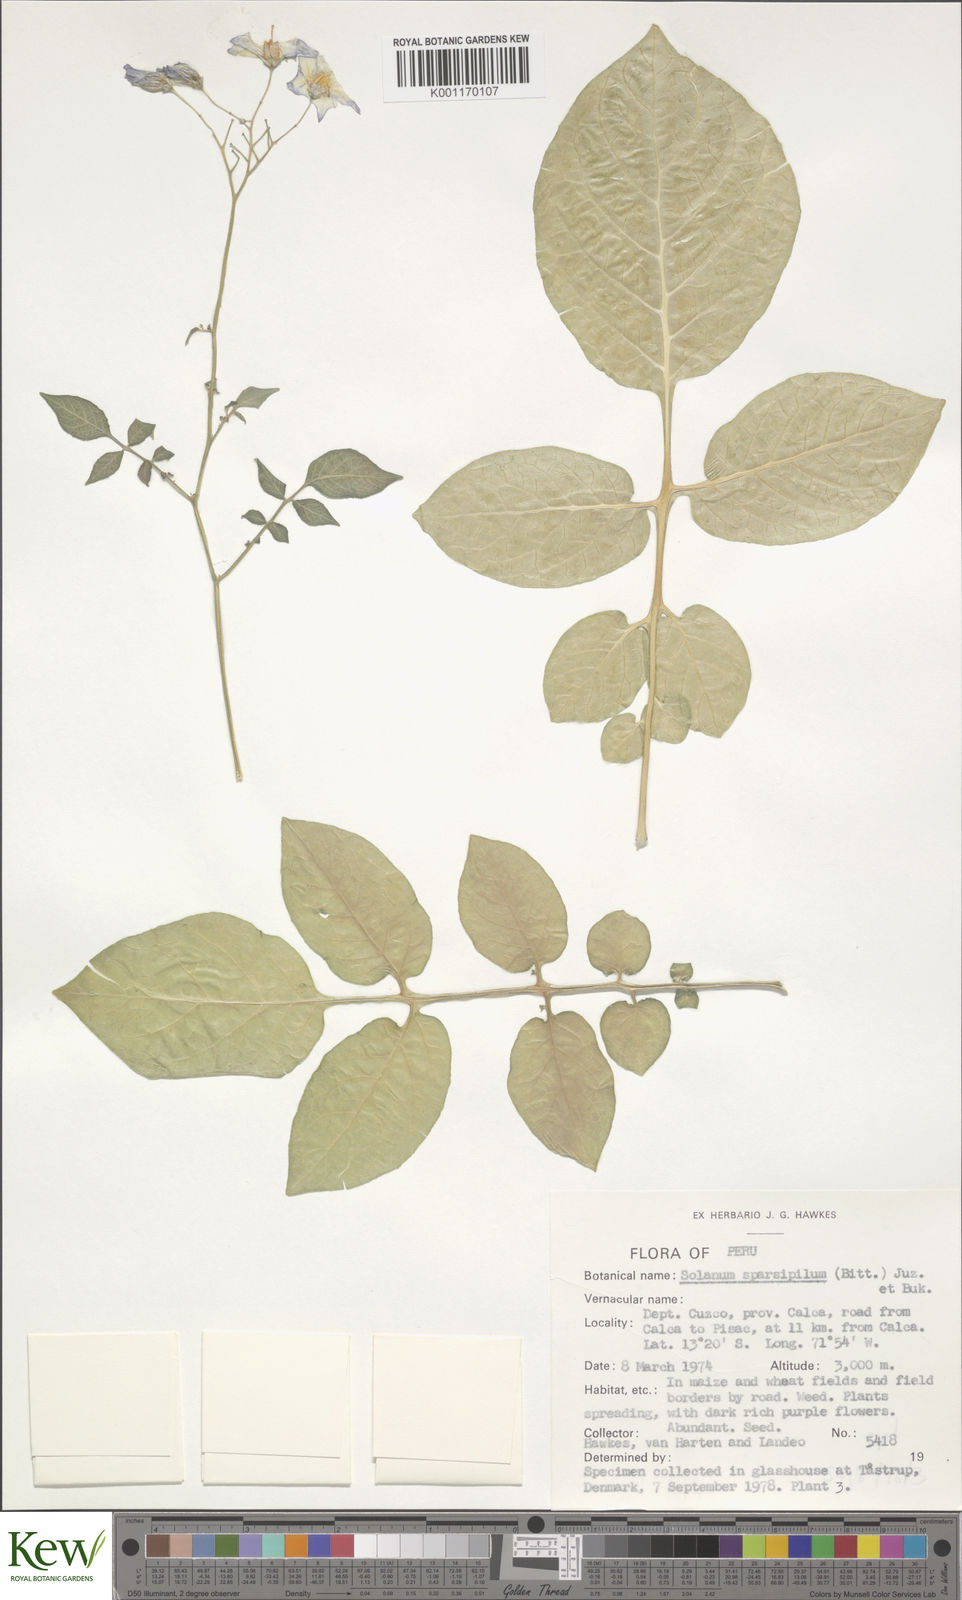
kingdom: Plantae
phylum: Tracheophyta
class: Magnoliopsida
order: Solanales
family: Solanaceae
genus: Solanum
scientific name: Solanum brevicaule
